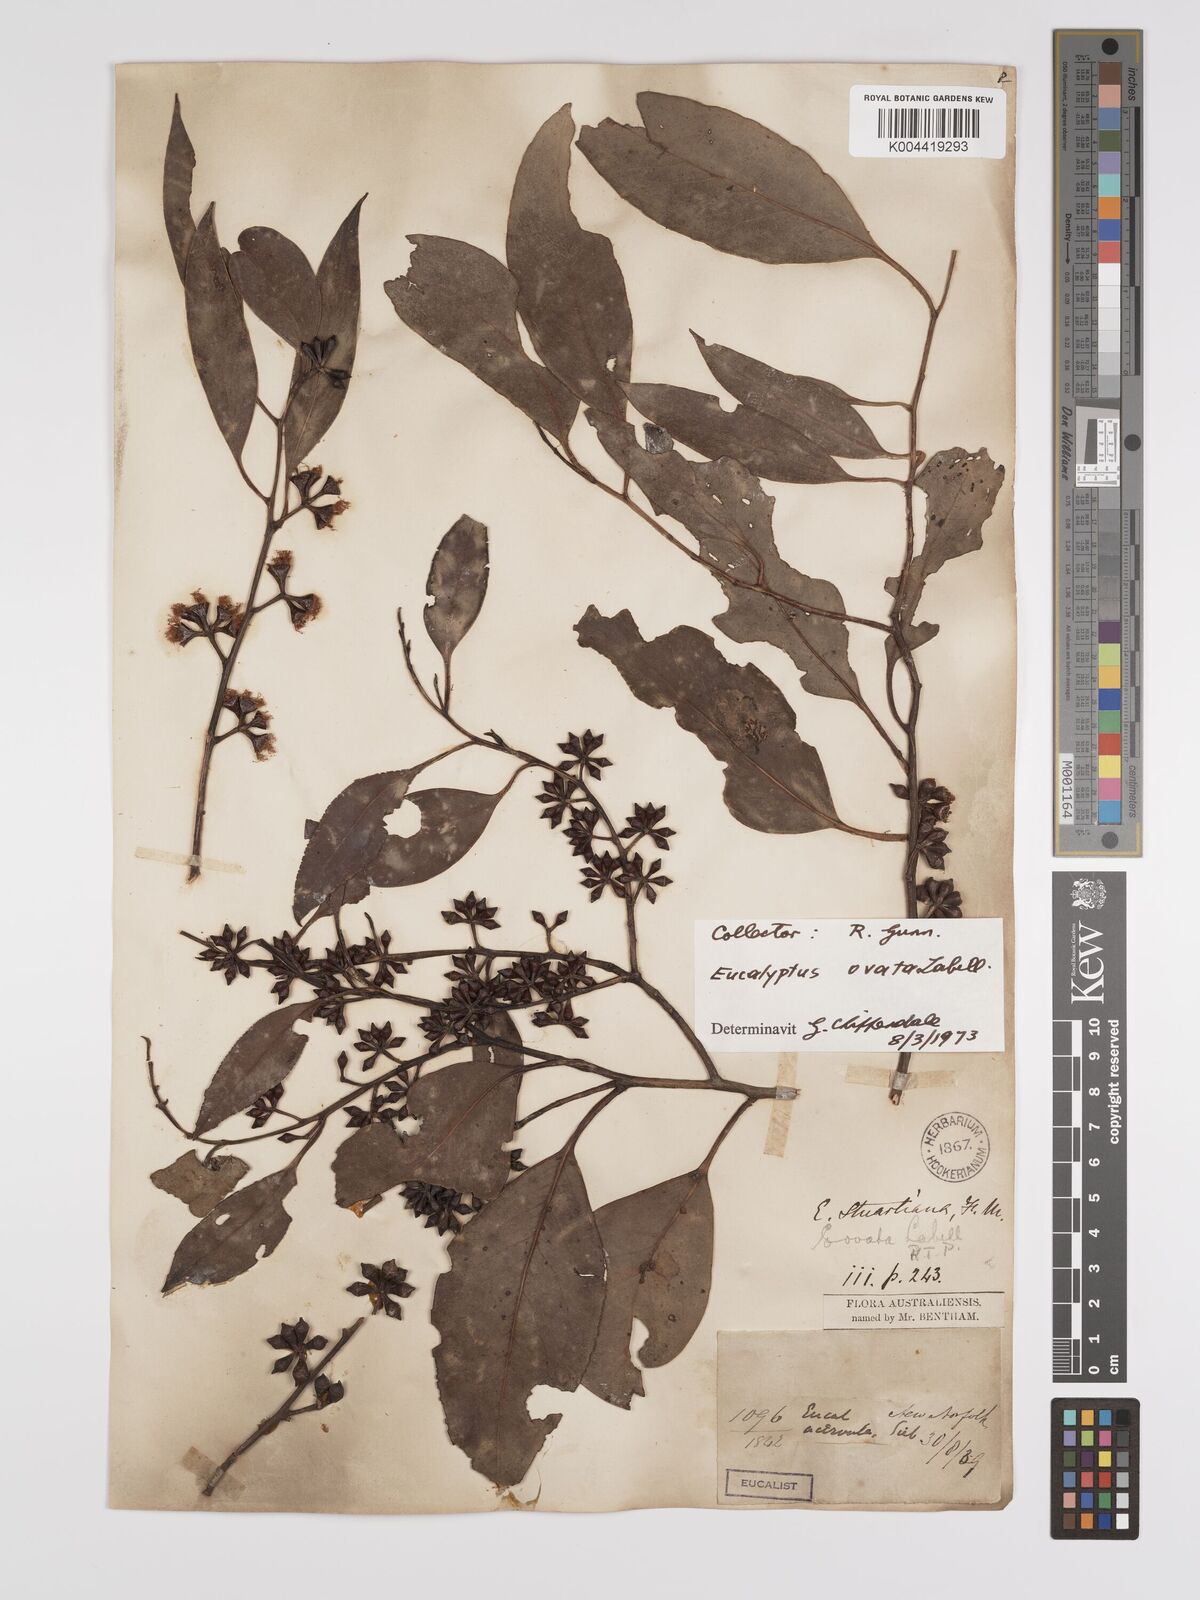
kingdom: Plantae
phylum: Tracheophyta
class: Magnoliopsida
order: Myrtales
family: Myrtaceae
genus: Eucalyptus
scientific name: Eucalyptus ovata
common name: Black-gum
